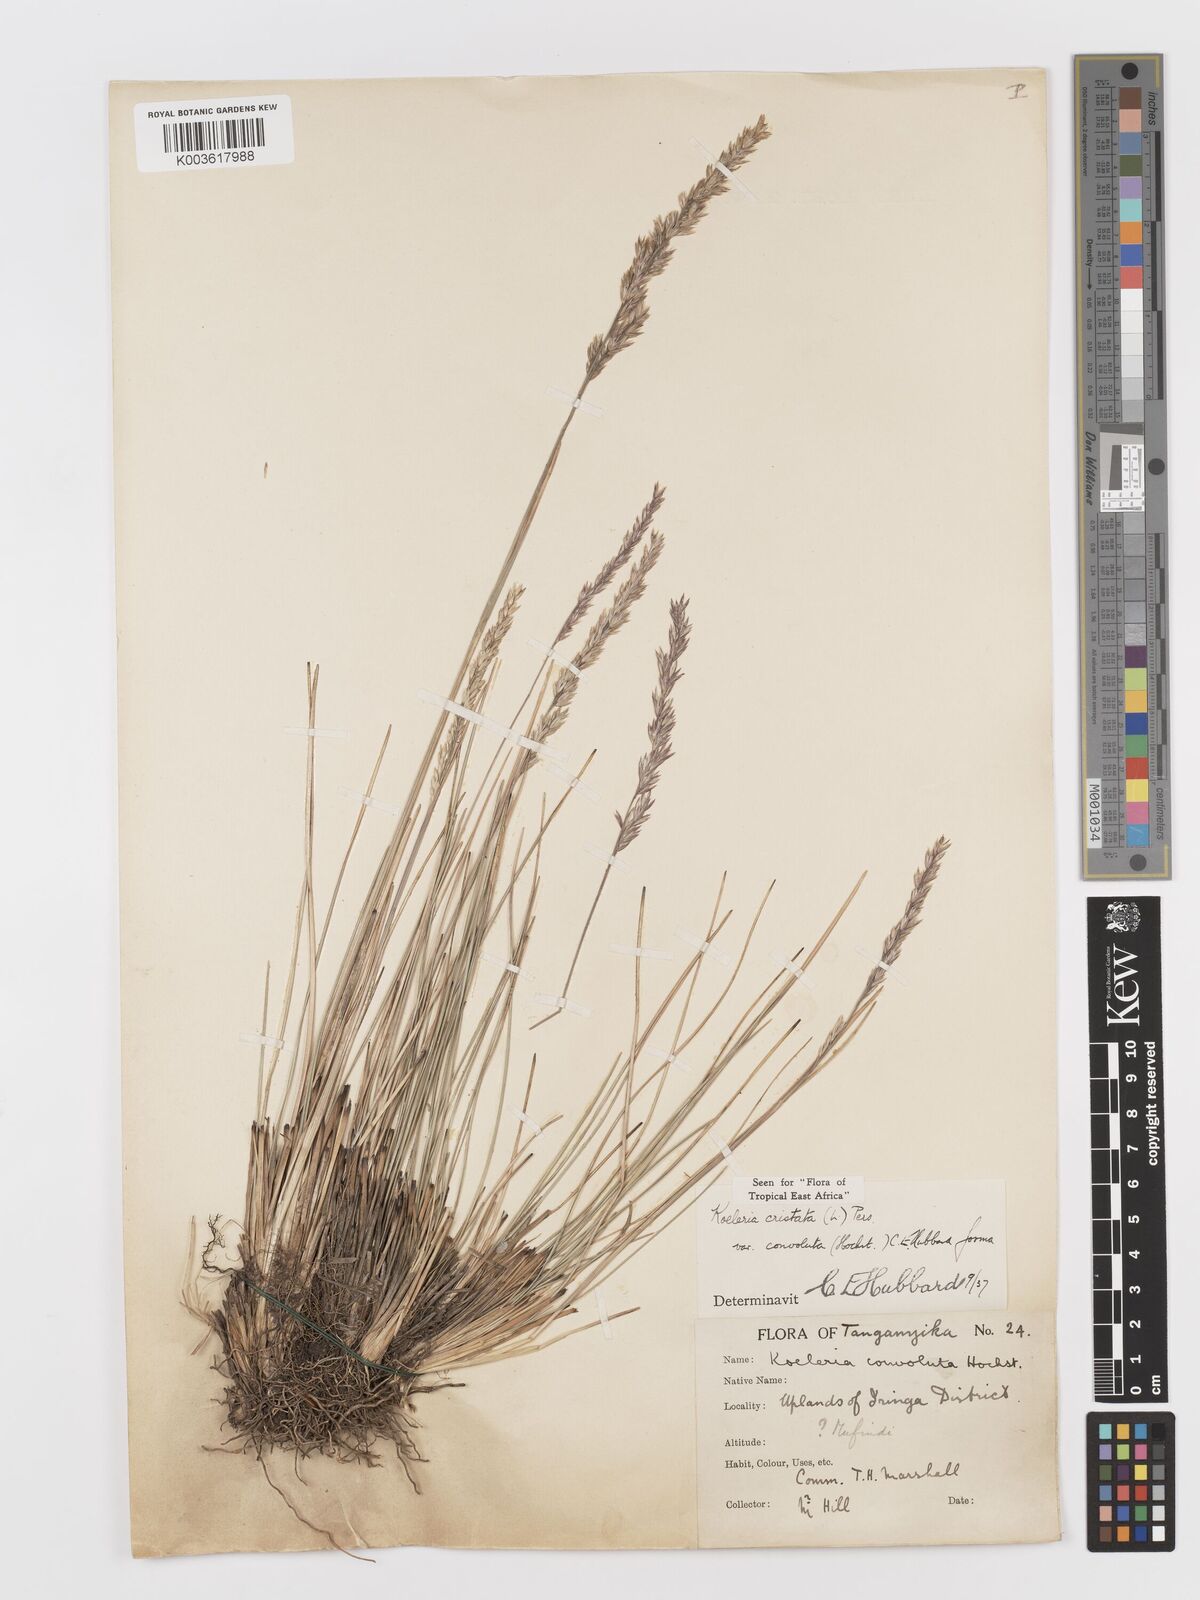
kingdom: Plantae
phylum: Tracheophyta
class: Liliopsida
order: Poales
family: Poaceae
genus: Koeleria
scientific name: Koeleria capensis
